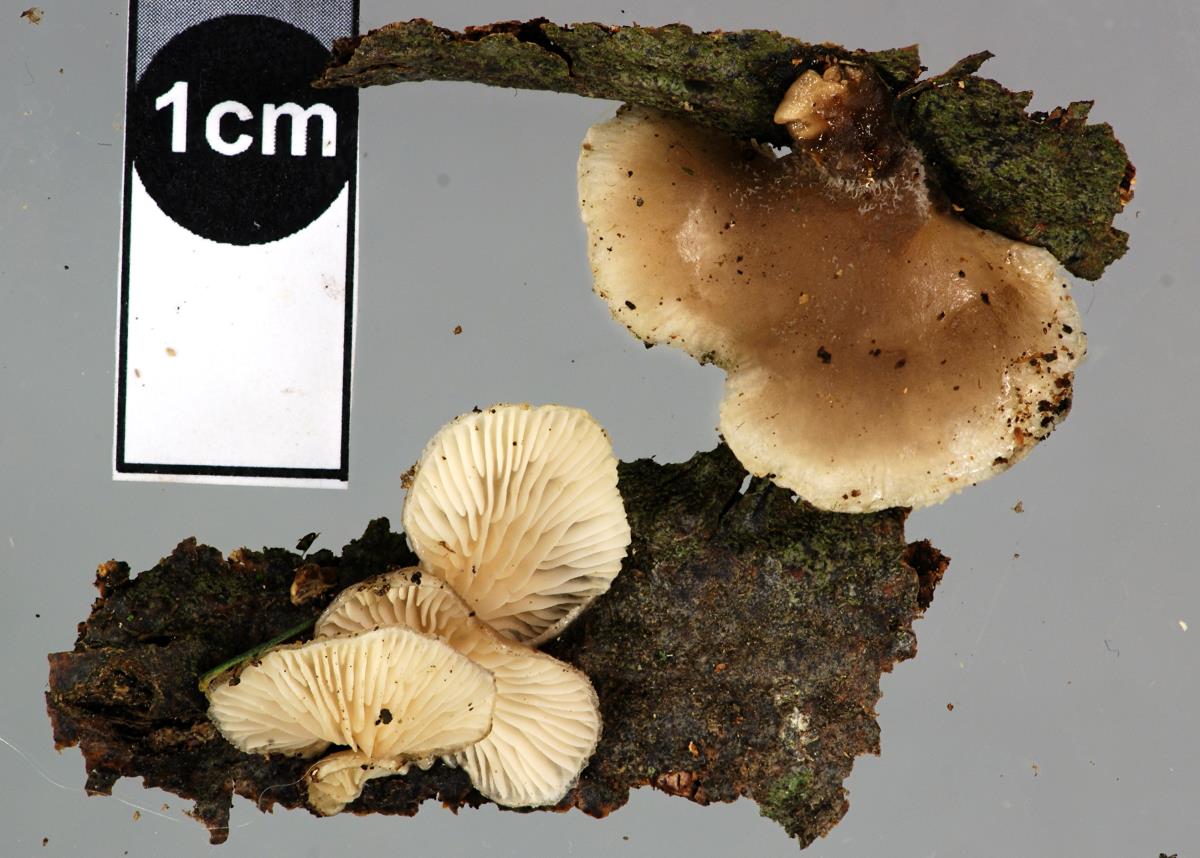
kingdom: Fungi
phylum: Basidiomycota
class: Agaricomycetes
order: Agaricales
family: Pleurotaceae
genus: Hohenbuehelia
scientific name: Hohenbuehelia brunnea
